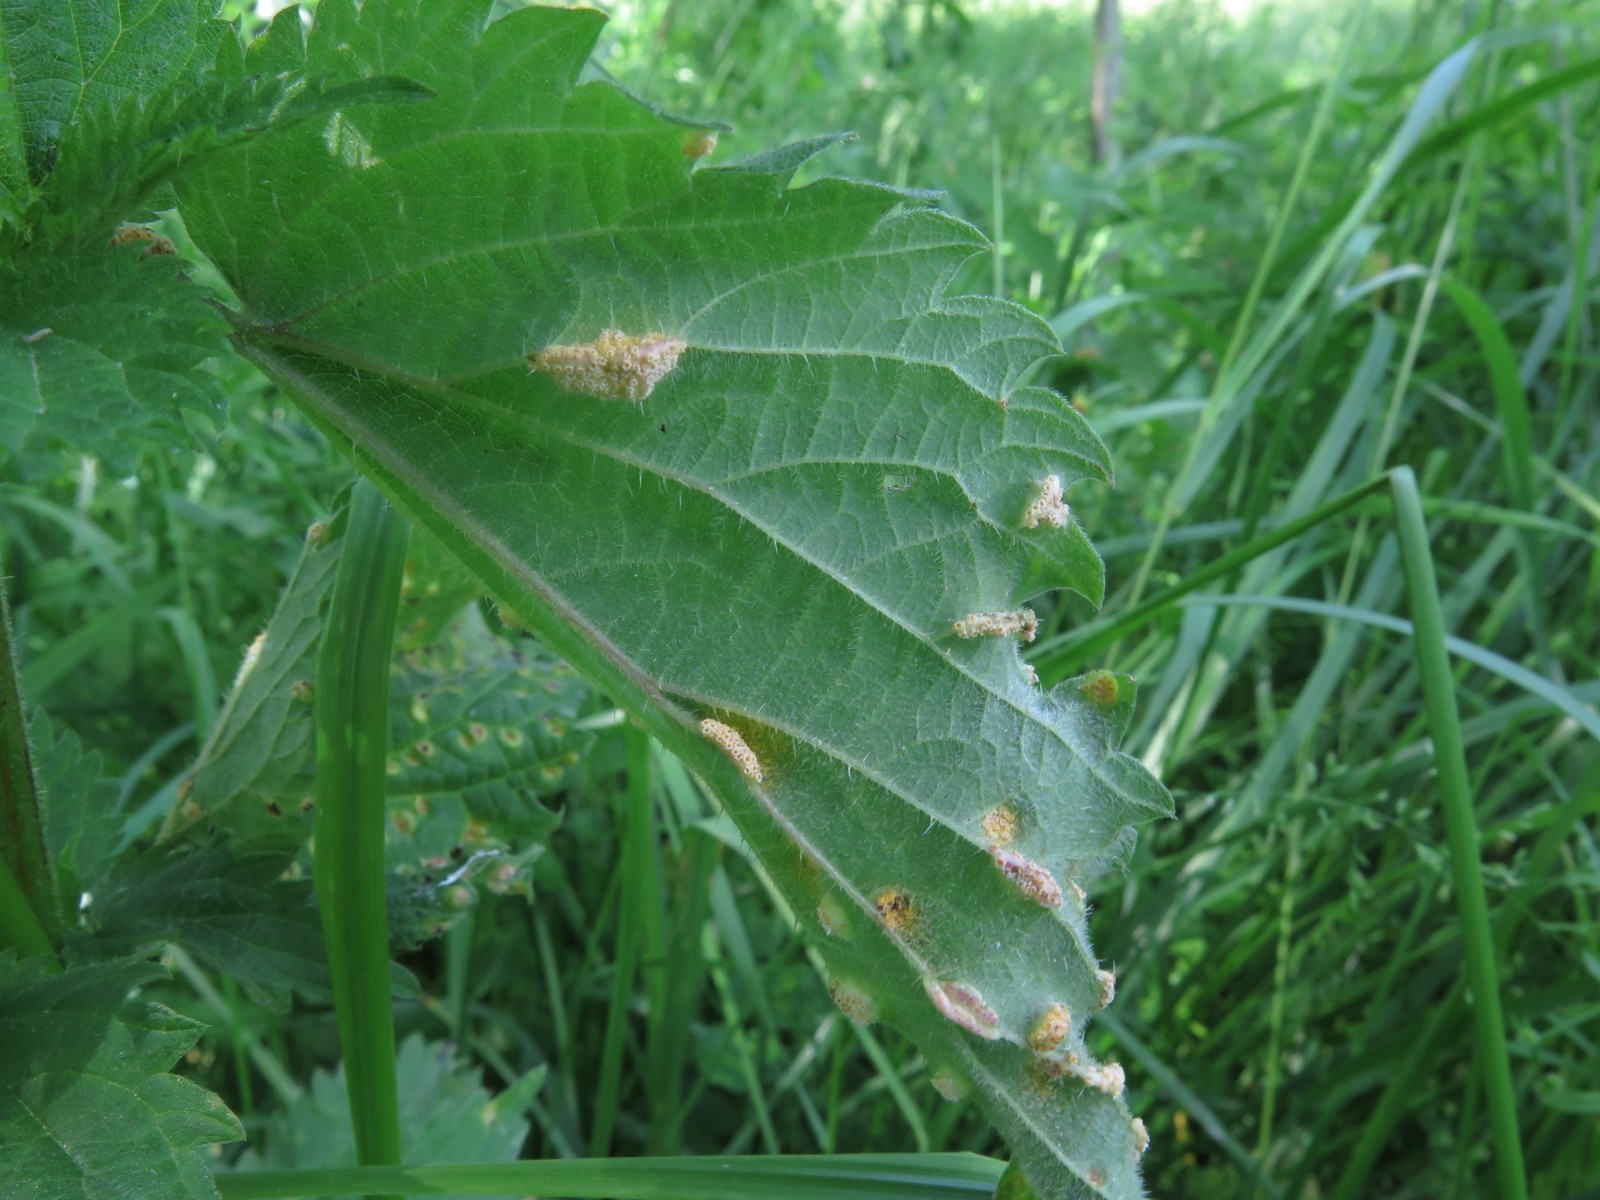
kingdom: Fungi
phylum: Basidiomycota
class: Pucciniomycetes
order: Pucciniales
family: Pucciniaceae
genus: Puccinia
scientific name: Puccinia urticata
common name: nældegalle-tvecellerust
